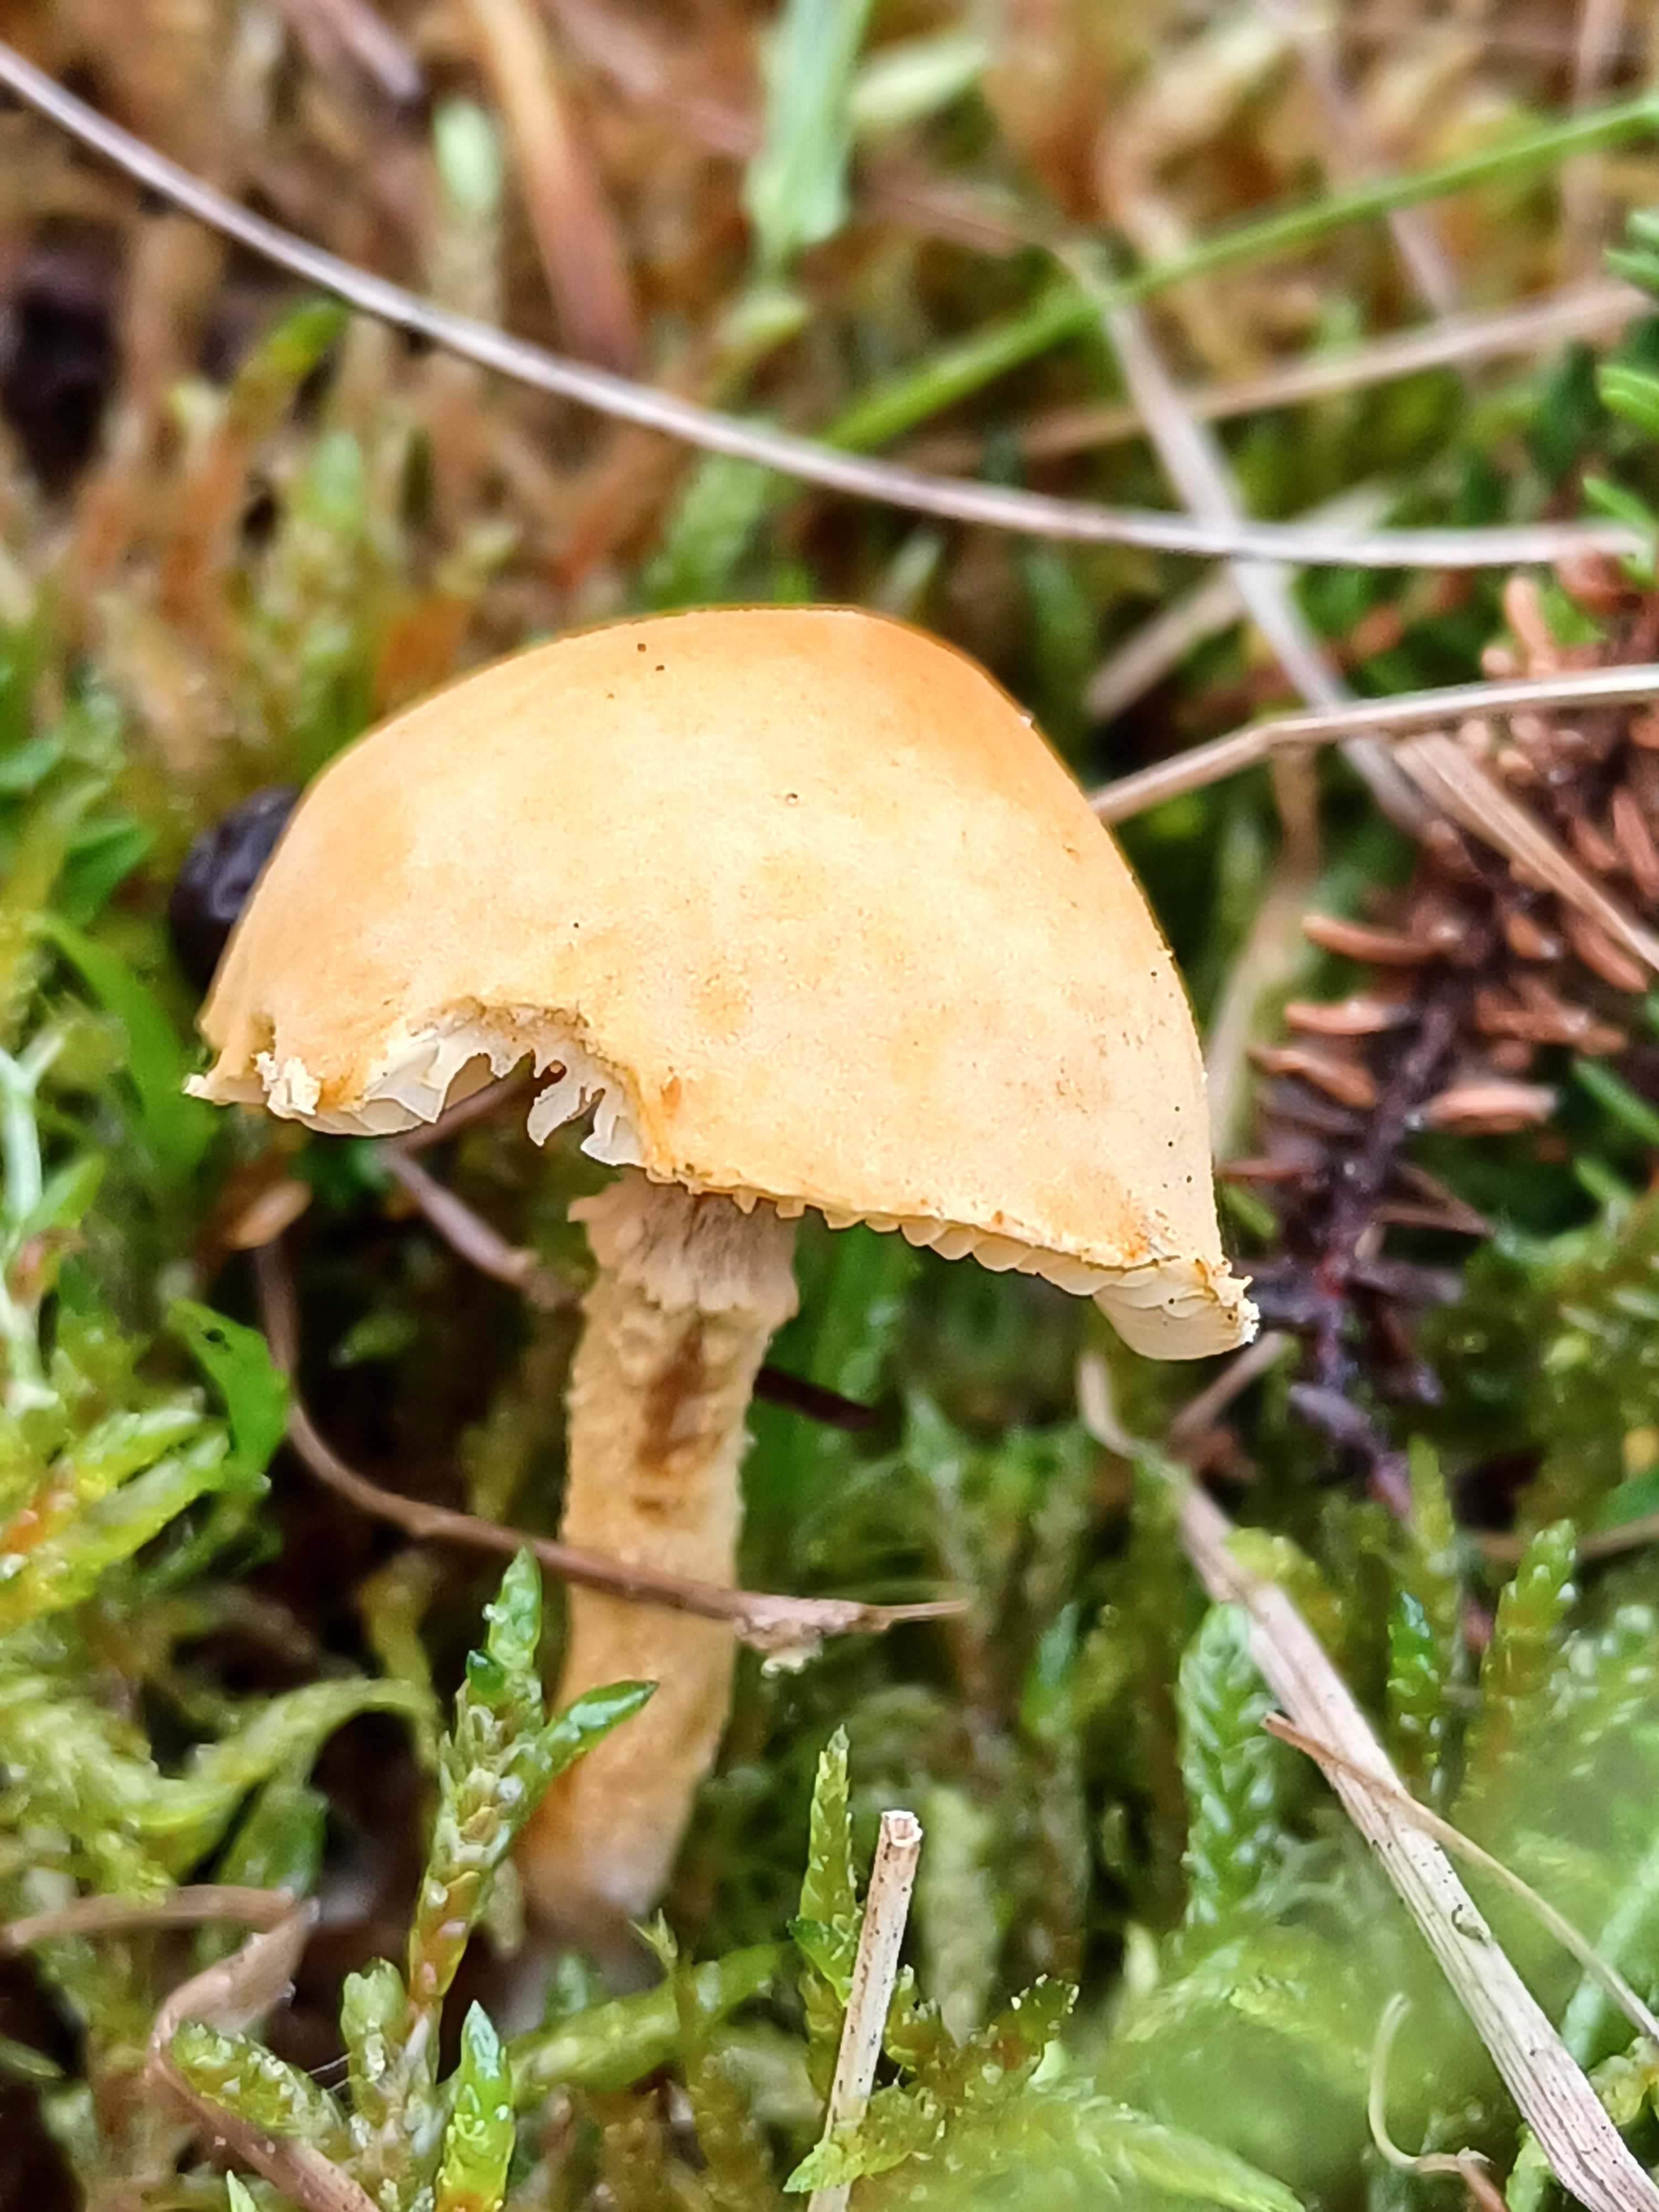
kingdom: Fungi
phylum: Basidiomycota
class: Agaricomycetes
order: Agaricales
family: Tricholomataceae
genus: Cystoderma
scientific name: Cystoderma amianthinum
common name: okkergul grynhat
